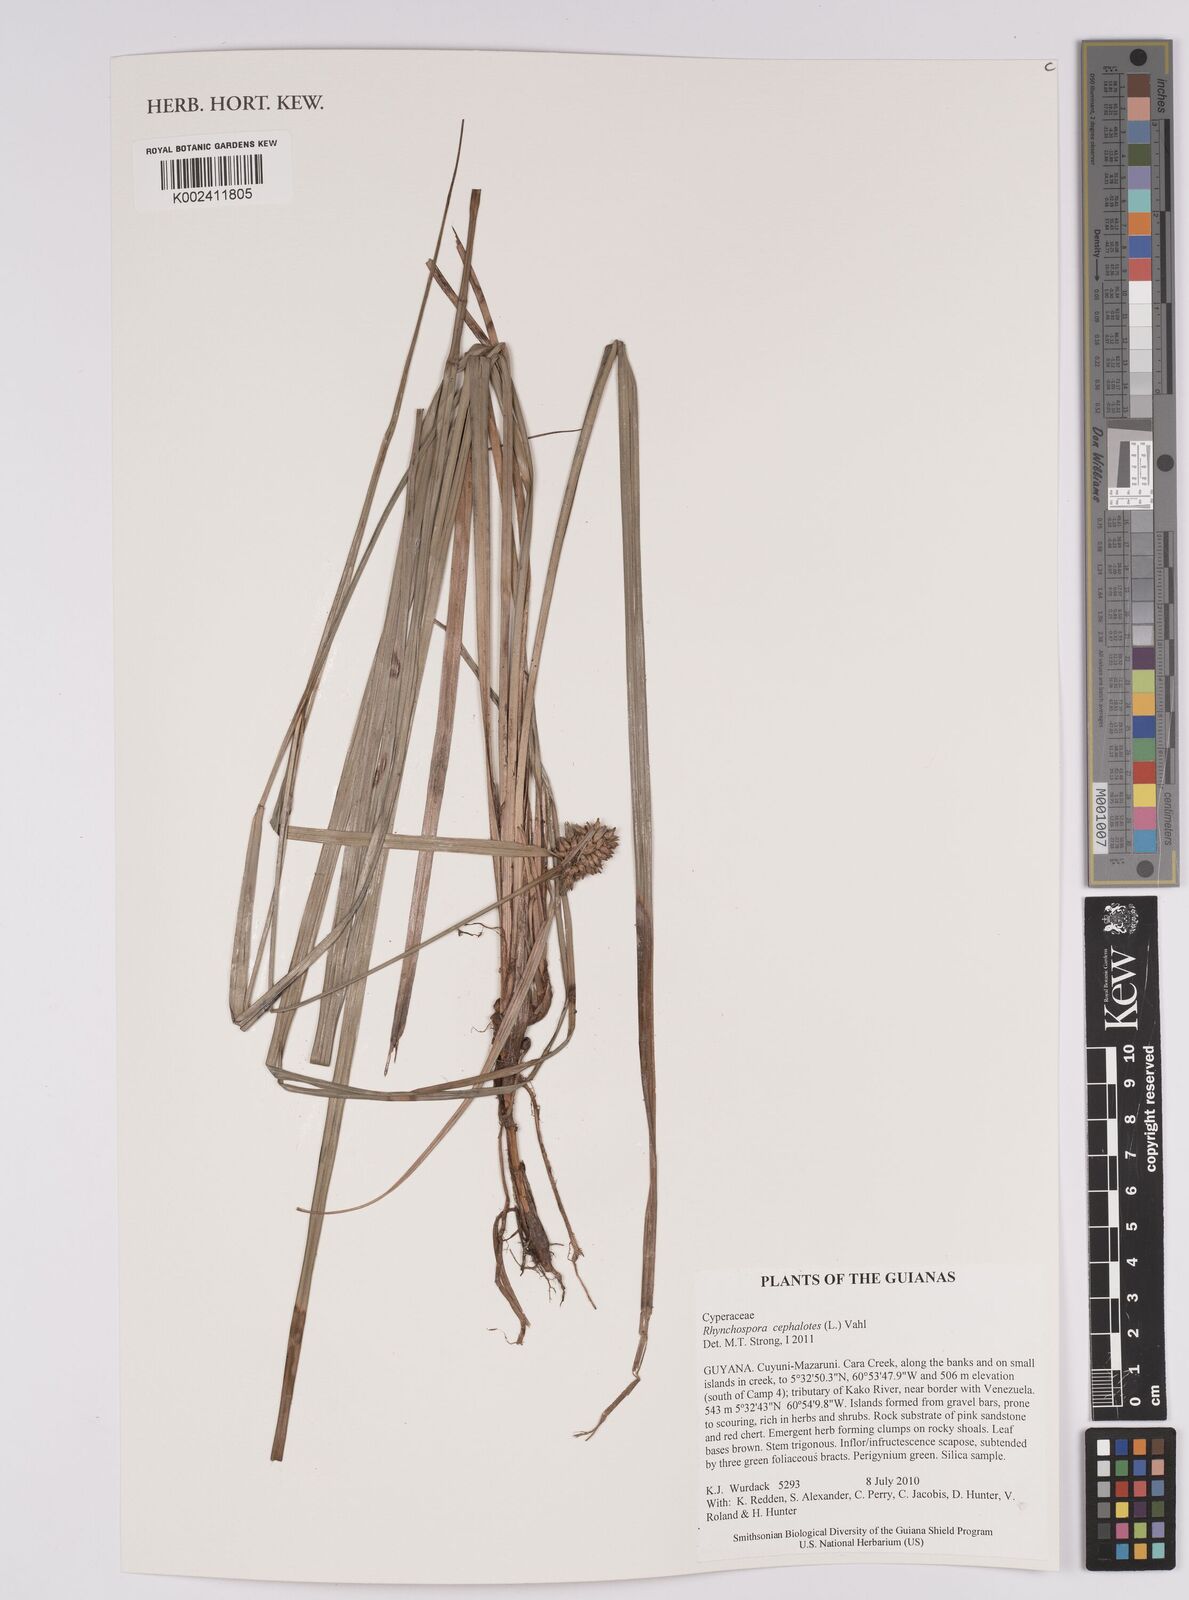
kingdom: Plantae
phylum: Tracheophyta
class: Liliopsida
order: Poales
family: Cyperaceae
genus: Rhynchospora
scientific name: Rhynchospora cephalotes
